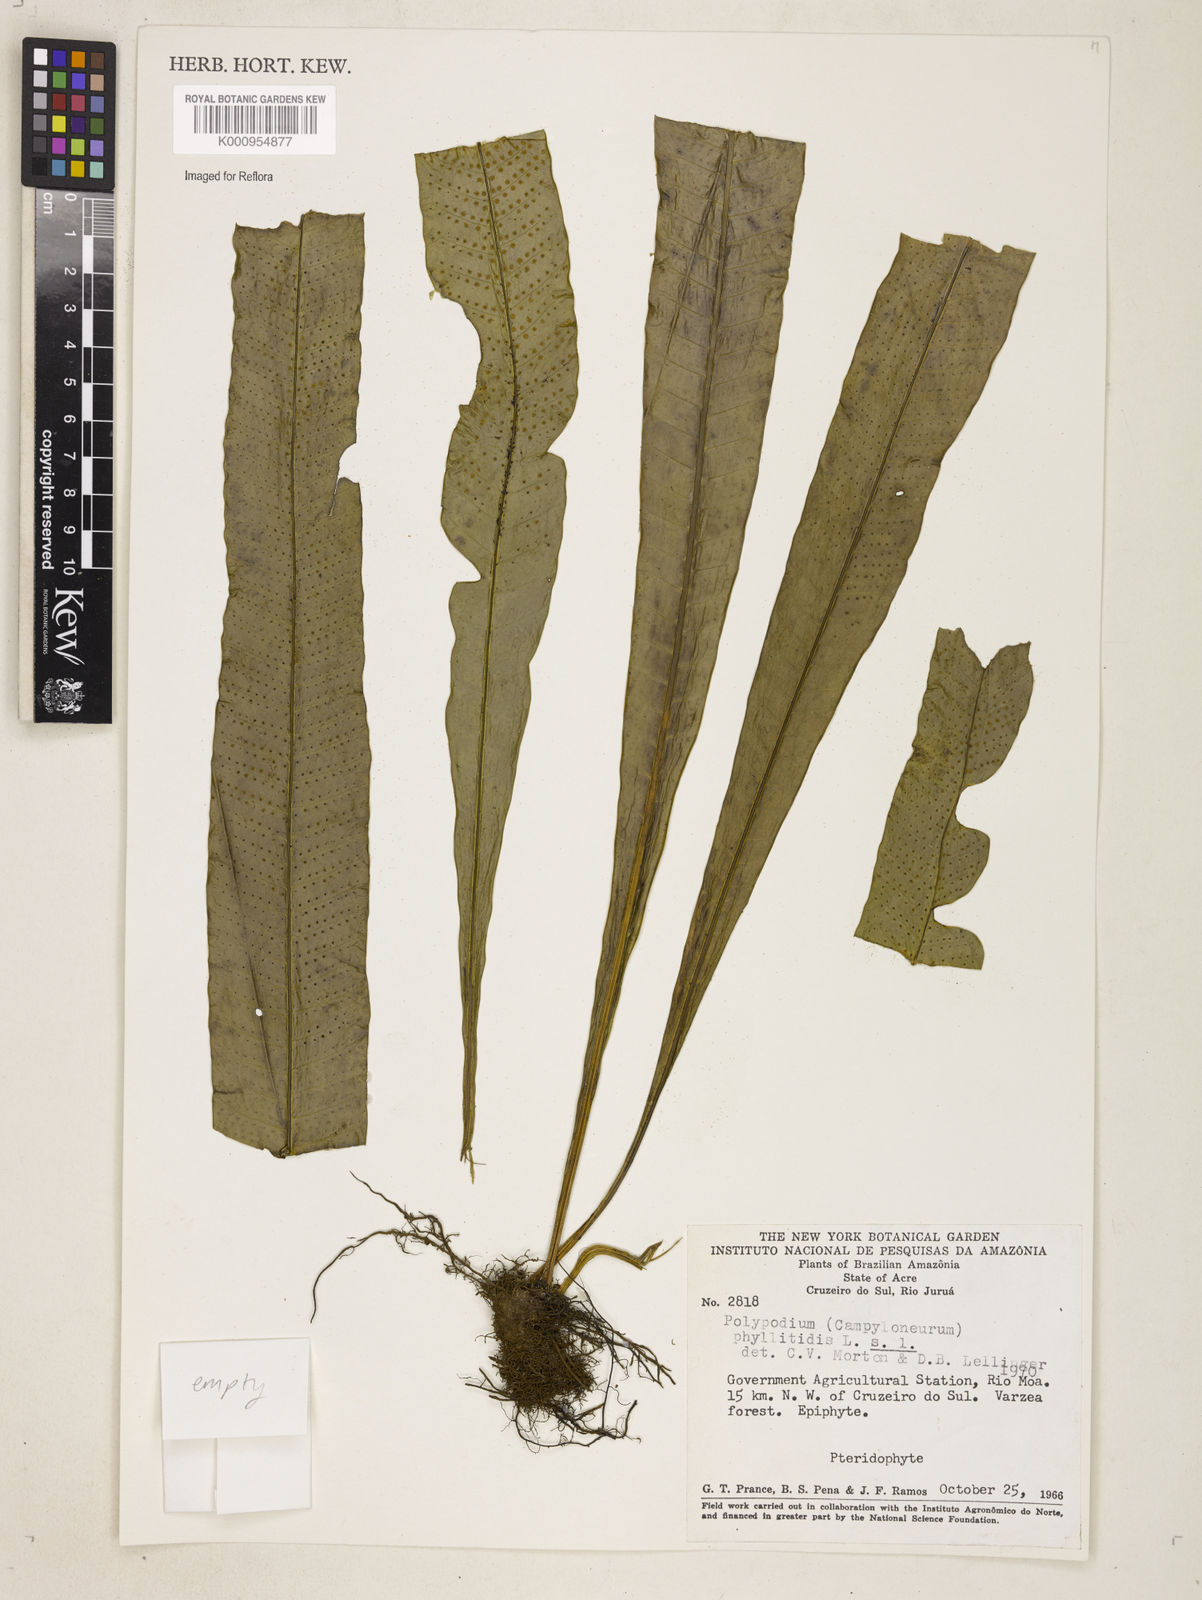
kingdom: Plantae
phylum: Tracheophyta
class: Polypodiopsida
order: Polypodiales
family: Polypodiaceae
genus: Campyloneurum
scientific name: Campyloneurum phyllitidis
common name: Cow-tongue fern
